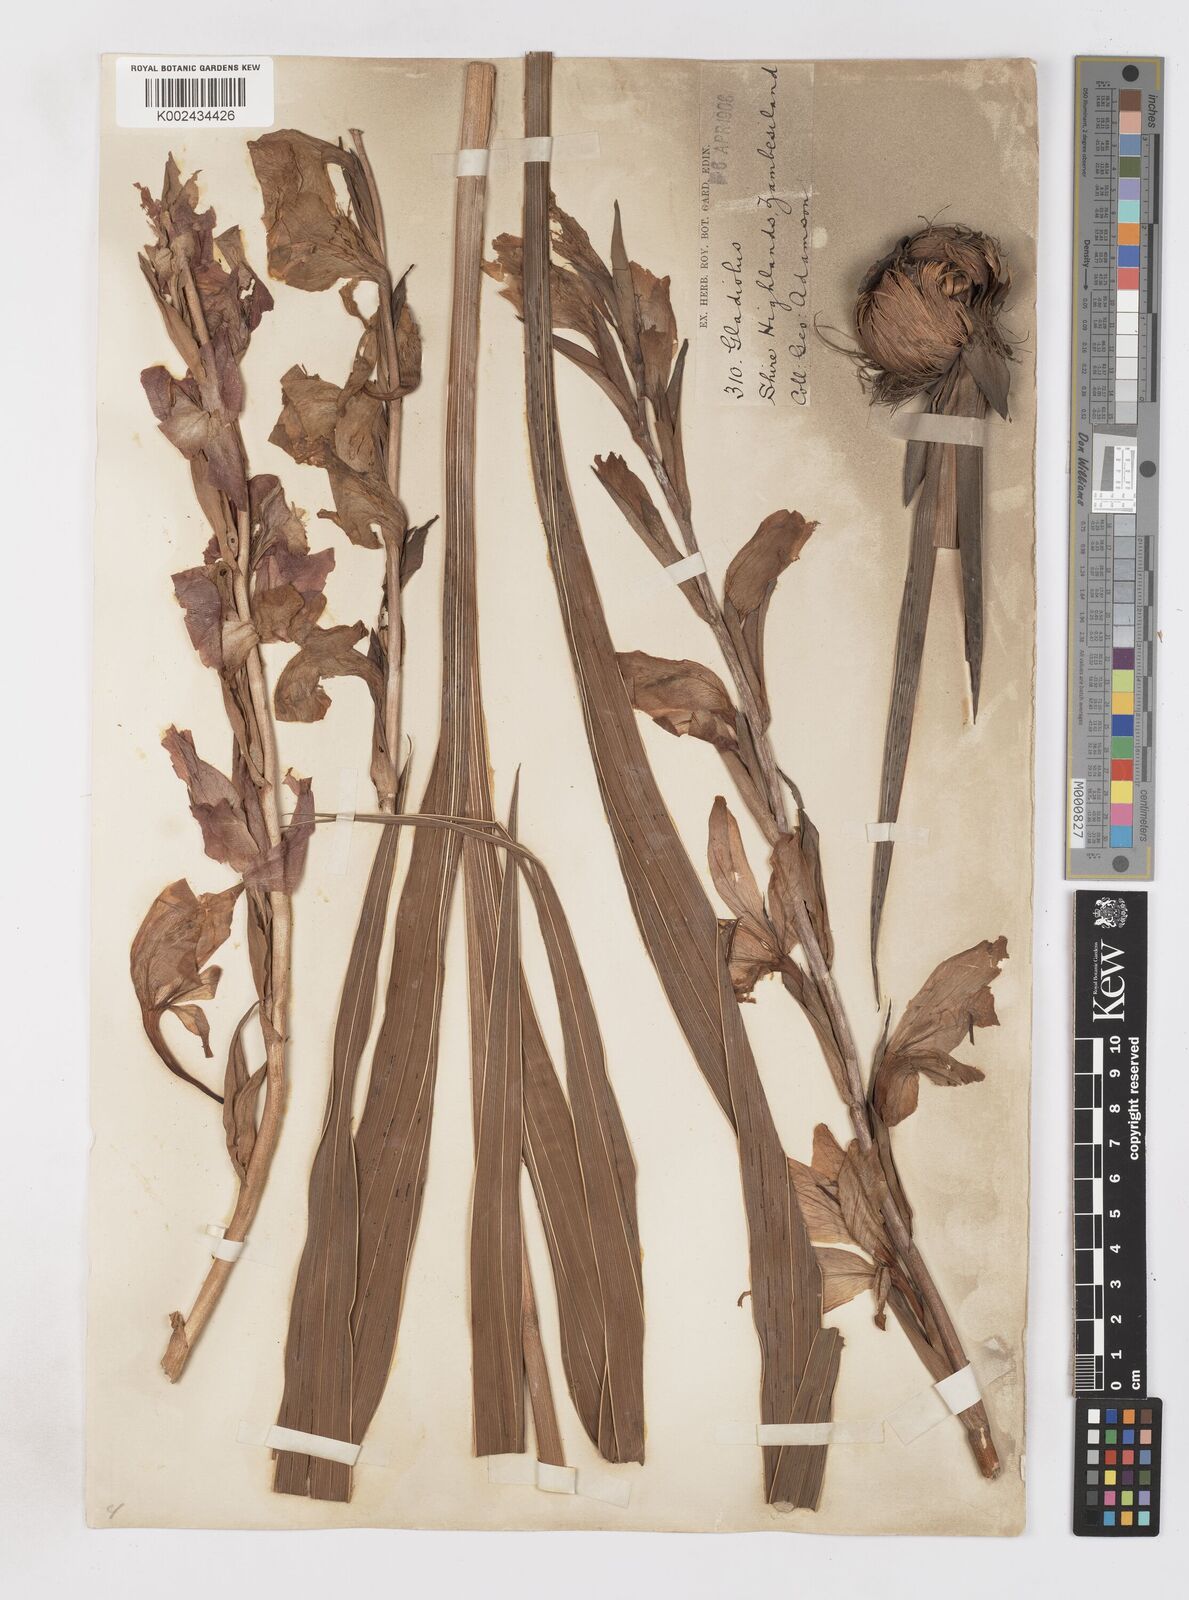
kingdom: Plantae
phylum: Tracheophyta
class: Liliopsida
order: Asparagales
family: Iridaceae
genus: Gladiolus
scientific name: Gladiolus dalenii
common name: Cornflag
